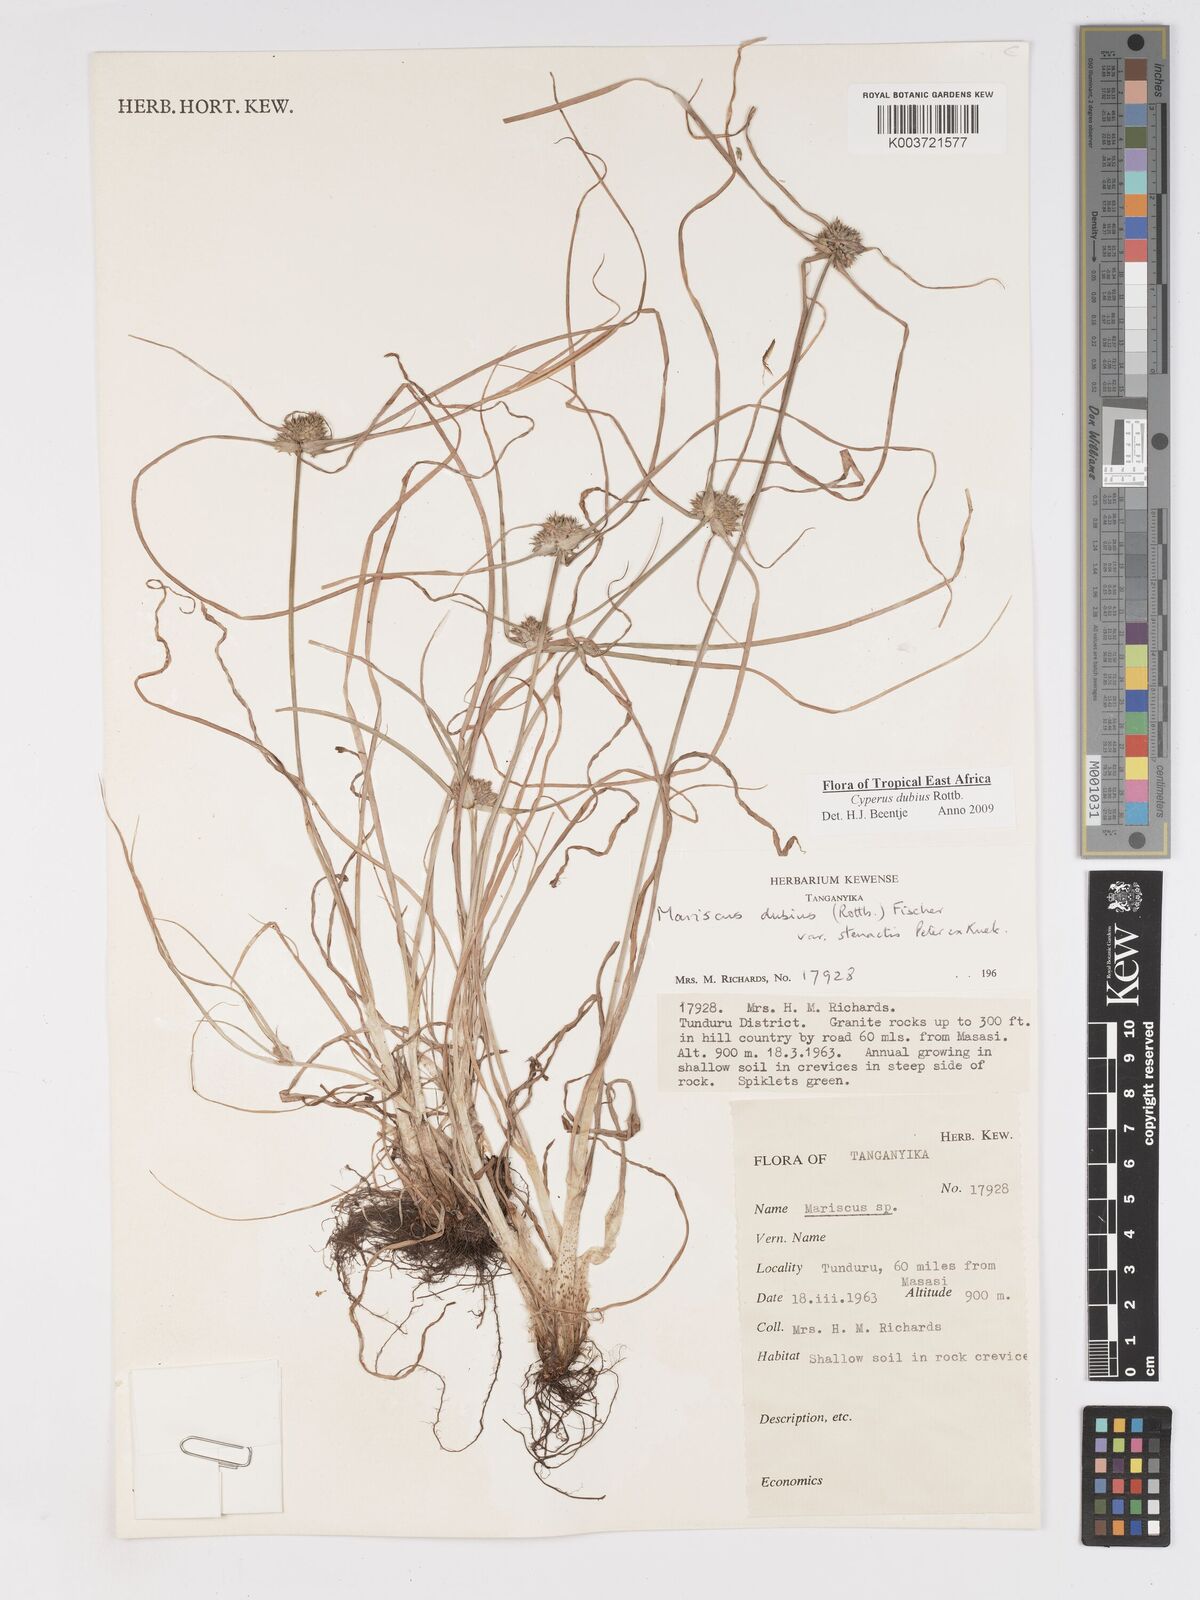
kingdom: Plantae
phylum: Tracheophyta
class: Liliopsida
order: Poales
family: Cyperaceae
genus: Cyperus
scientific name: Cyperus dubius
